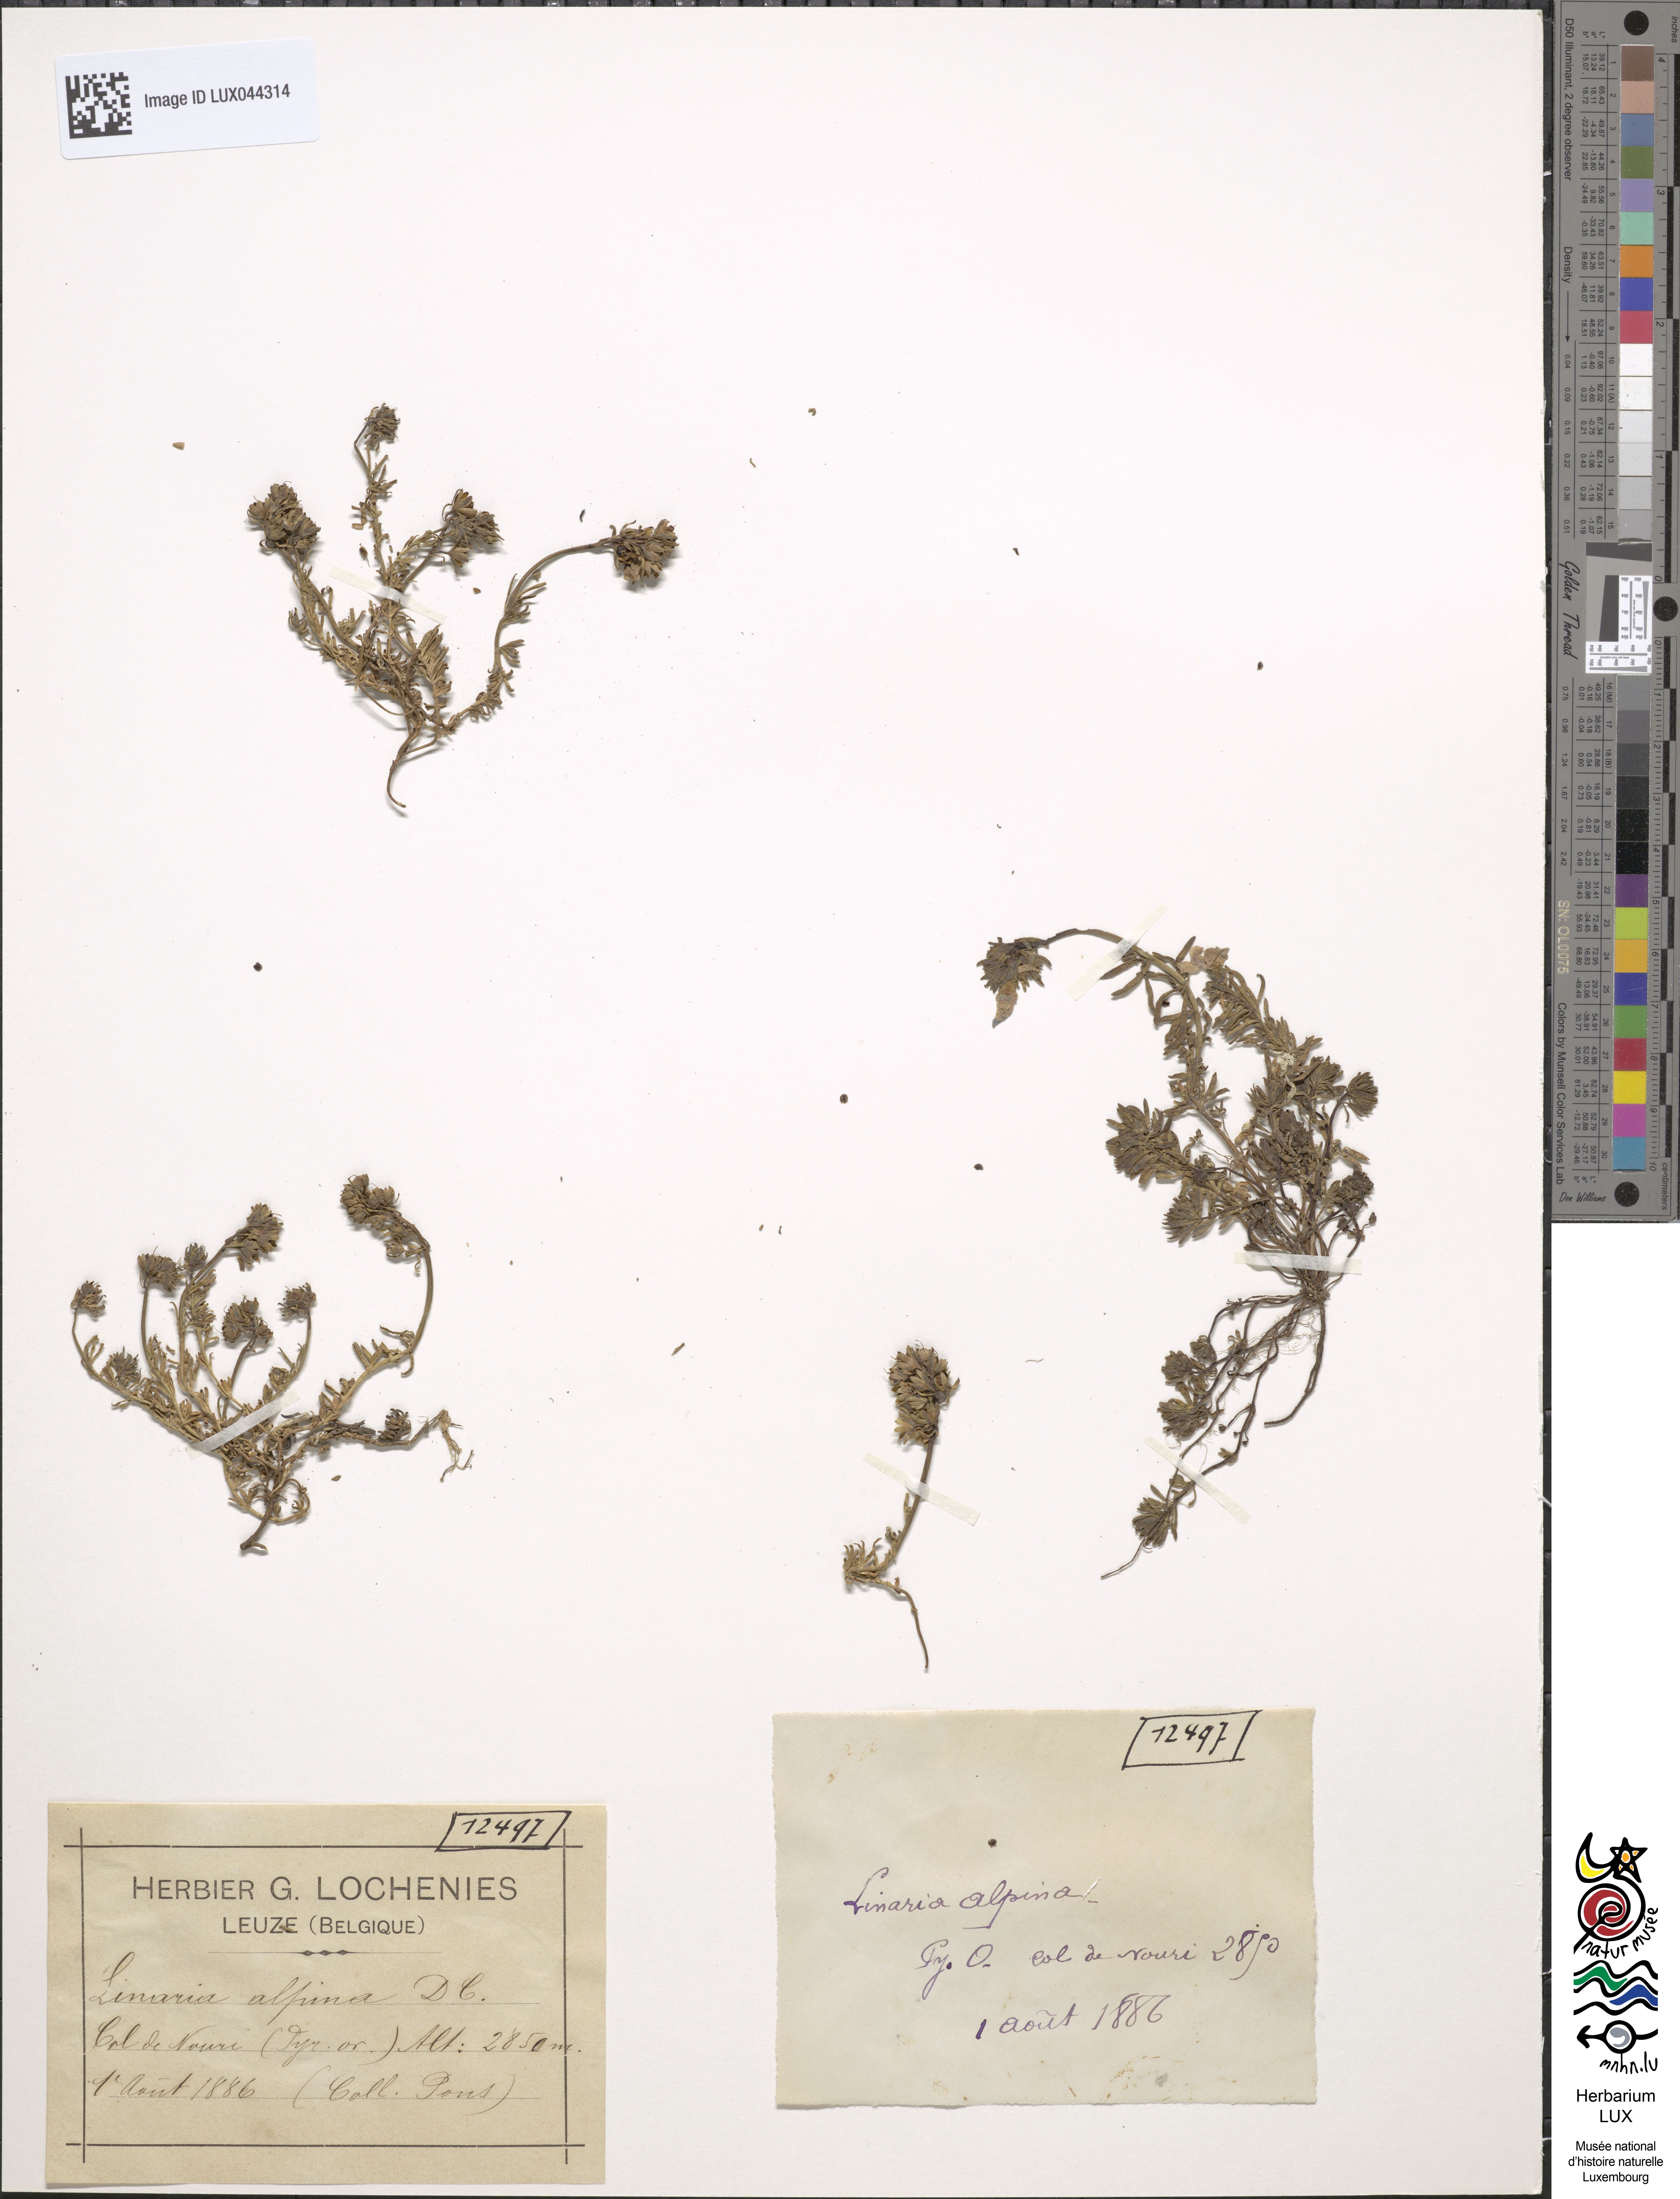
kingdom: Plantae
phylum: Tracheophyta
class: Magnoliopsida
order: Lamiales
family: Plantaginaceae
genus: Linaria
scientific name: Linaria alpina
